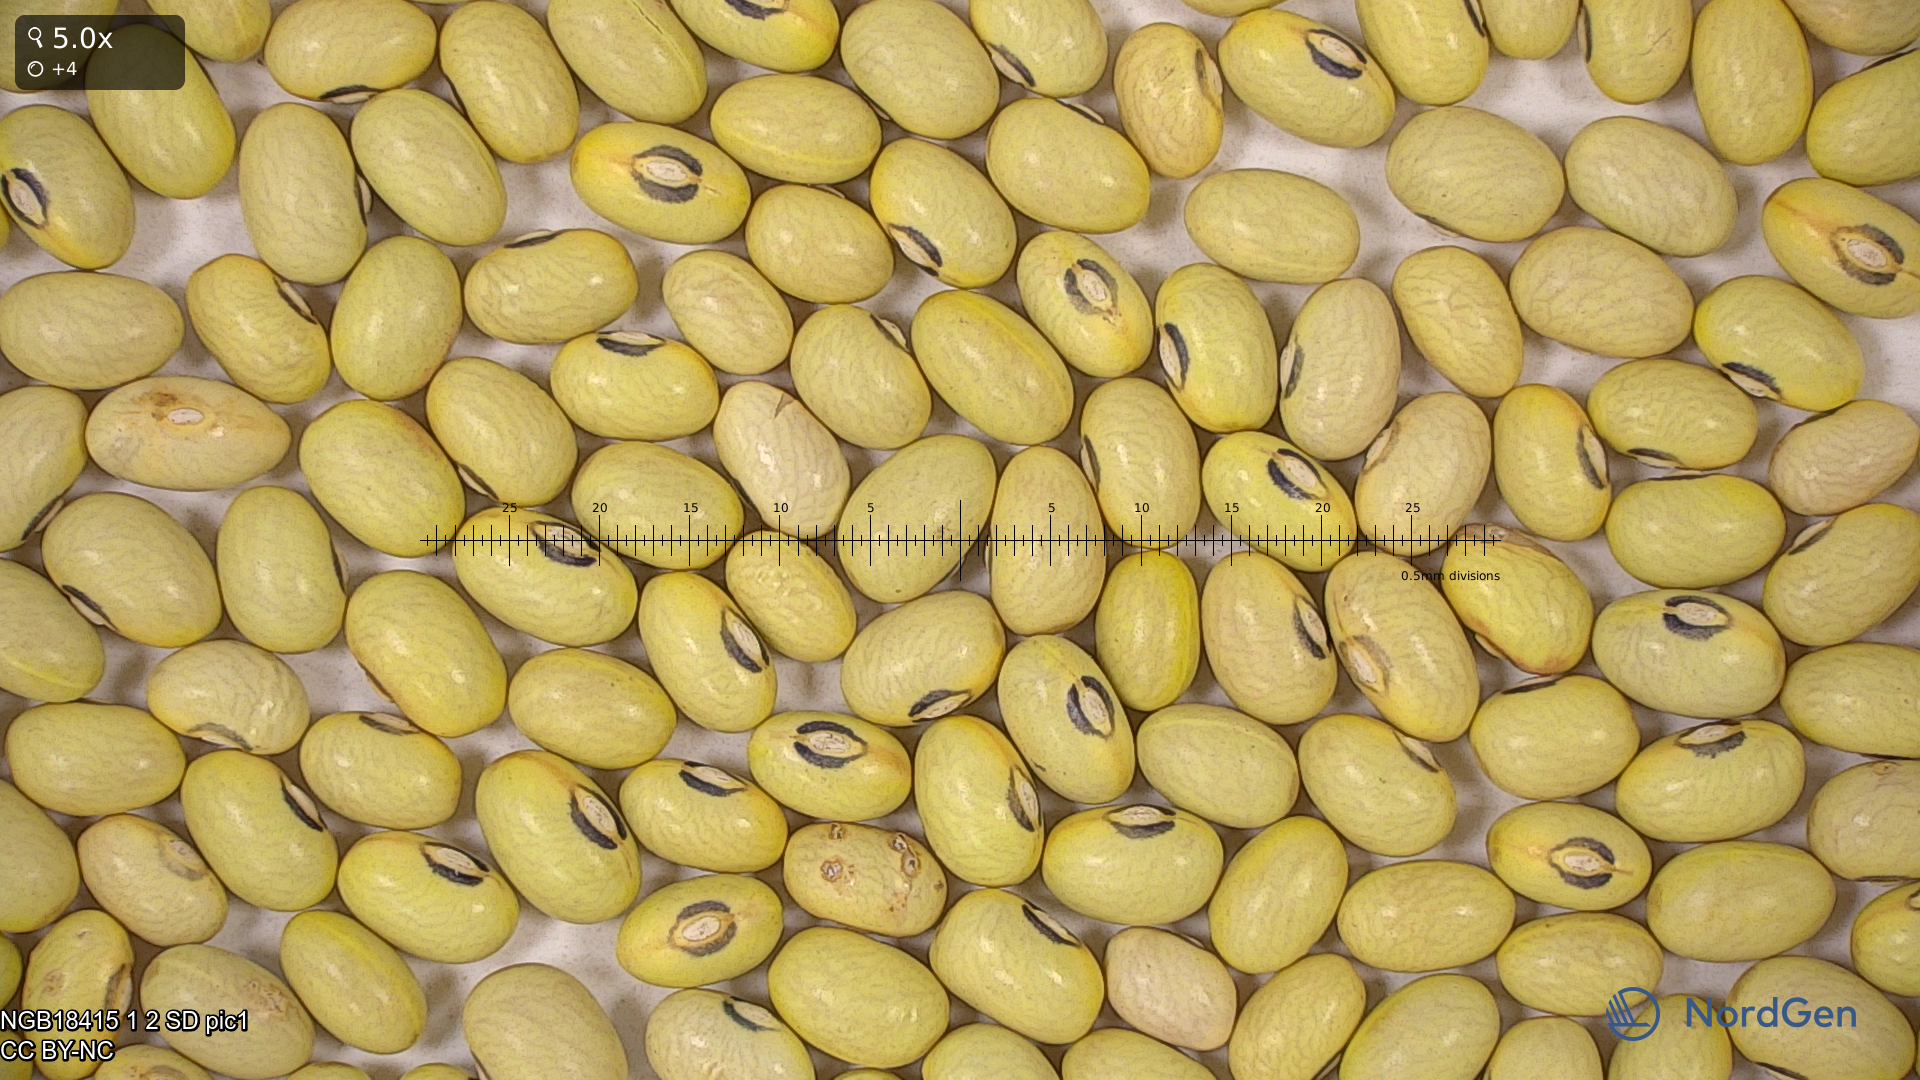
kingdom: Plantae
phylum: Tracheophyta
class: Magnoliopsida
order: Fabales
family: Fabaceae
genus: Phaseolus
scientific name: Phaseolus vulgaris
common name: Bean
